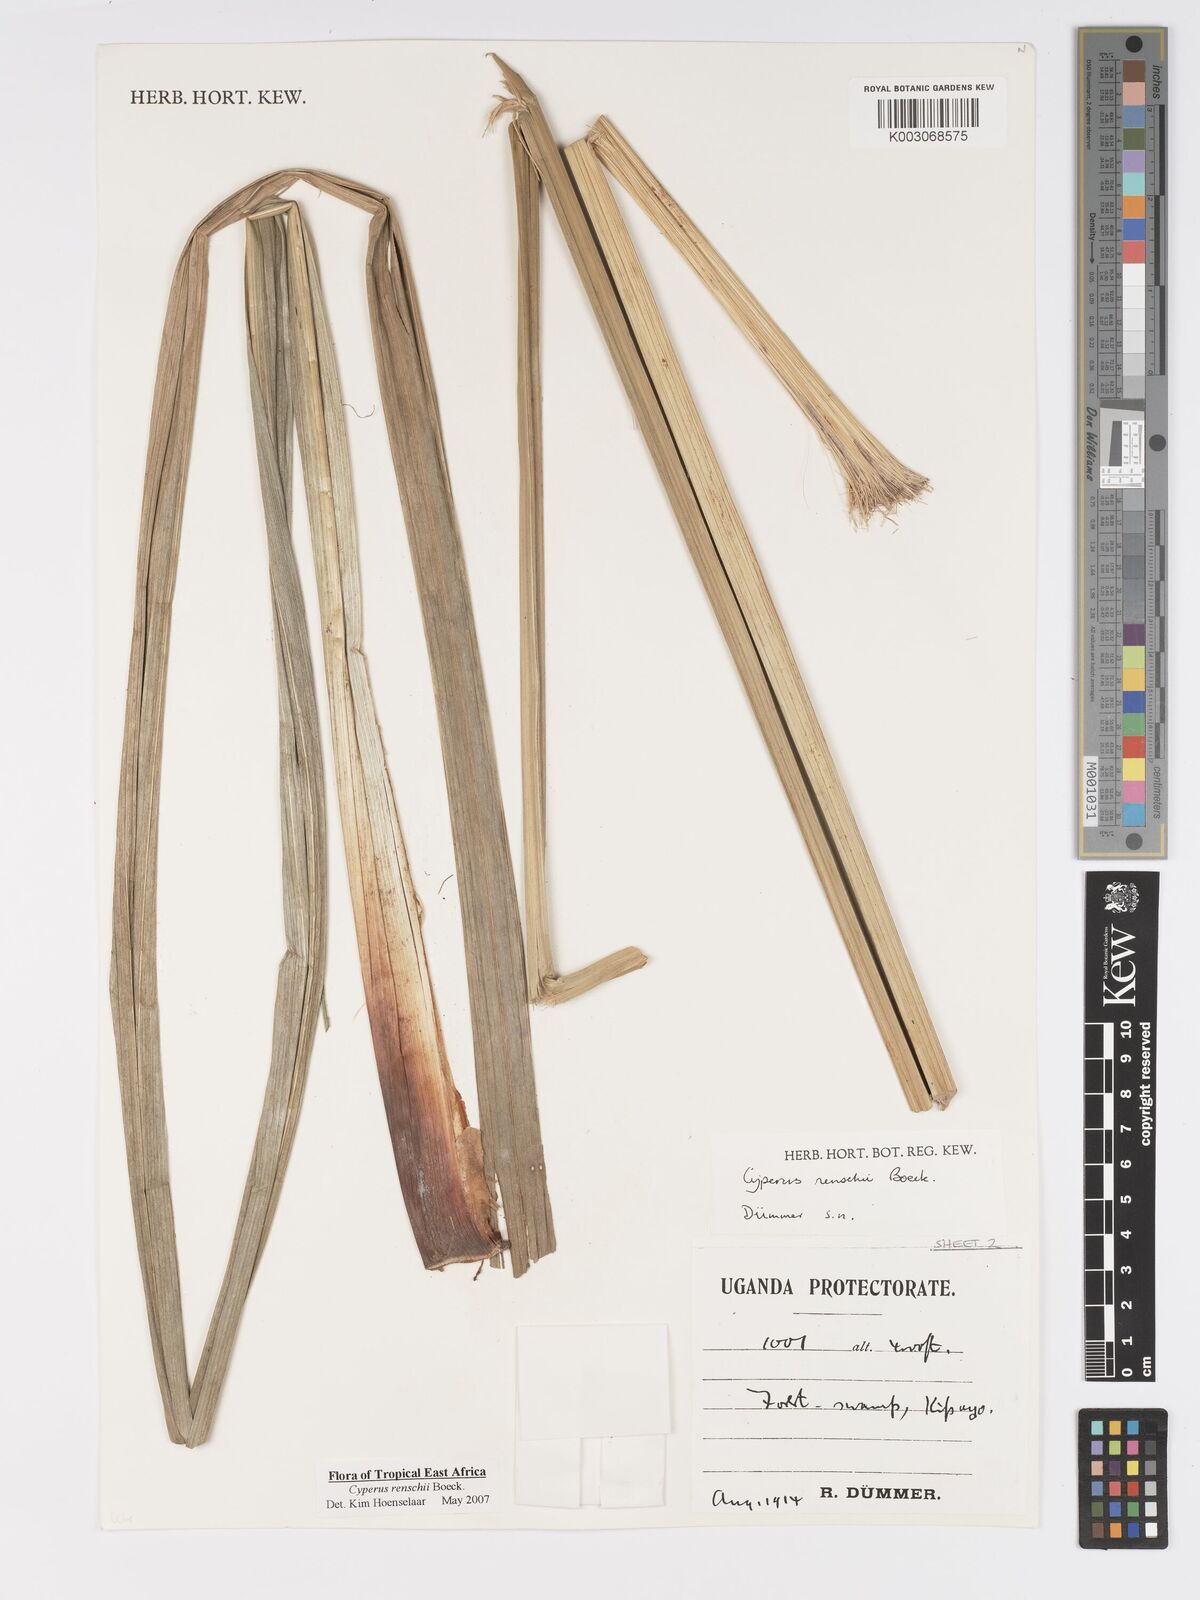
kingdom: Plantae
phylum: Tracheophyta
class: Liliopsida
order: Poales
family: Cyperaceae
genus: Cyperus
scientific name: Cyperus renschii
